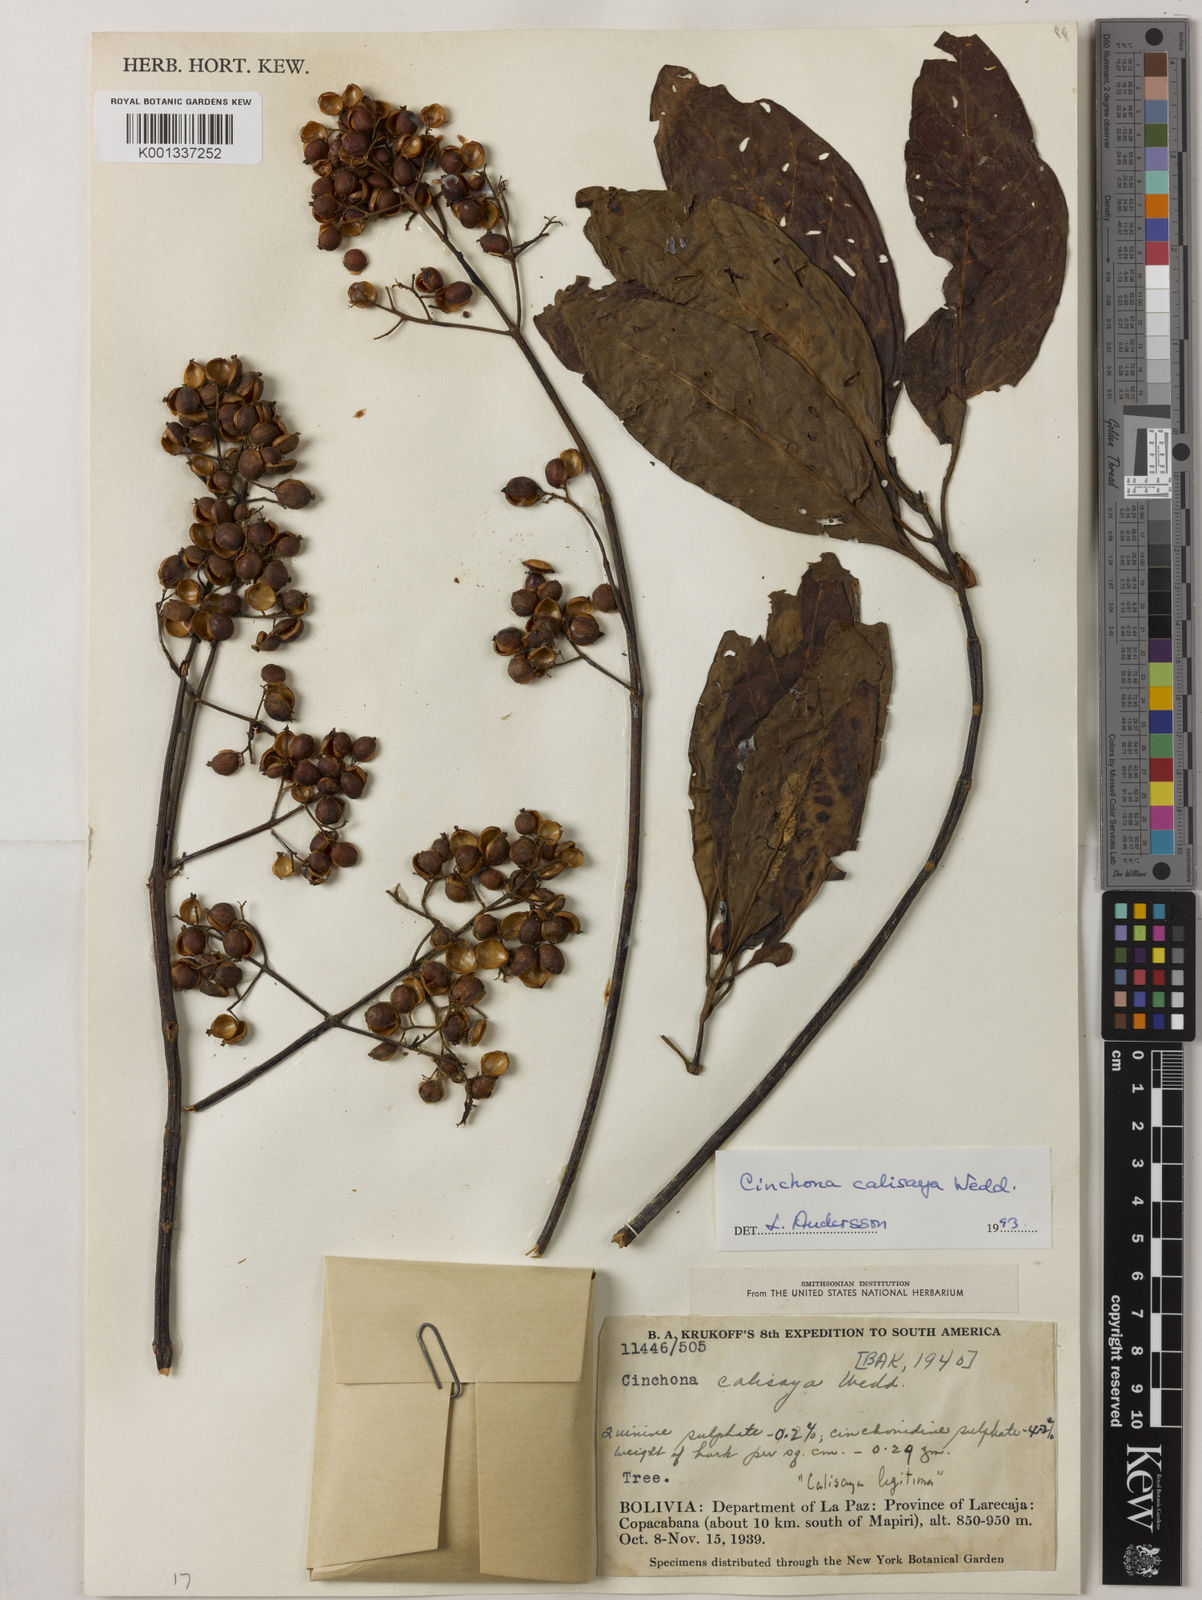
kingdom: Plantae
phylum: Tracheophyta
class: Magnoliopsida
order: Gentianales
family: Rubiaceae
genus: Cinchona
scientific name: Cinchona calisaya
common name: Ledgerbark
